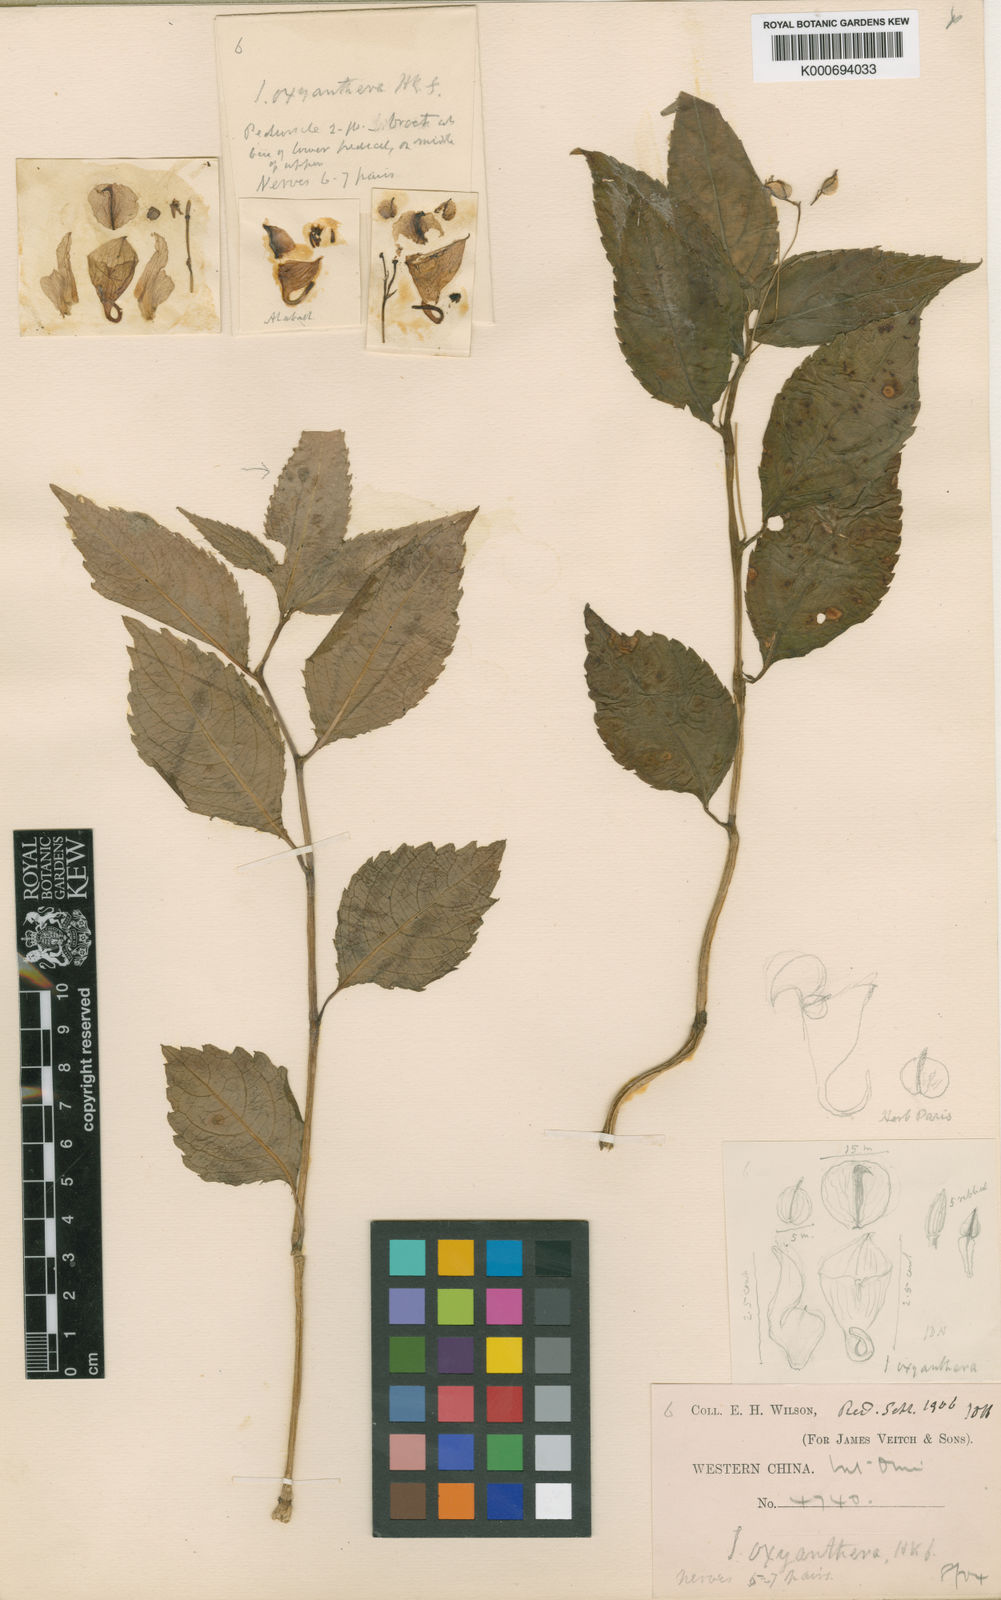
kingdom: Plantae
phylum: Tracheophyta
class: Magnoliopsida
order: Ericales
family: Balsaminaceae
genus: Impatiens
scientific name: Impatiens oxyanthera
